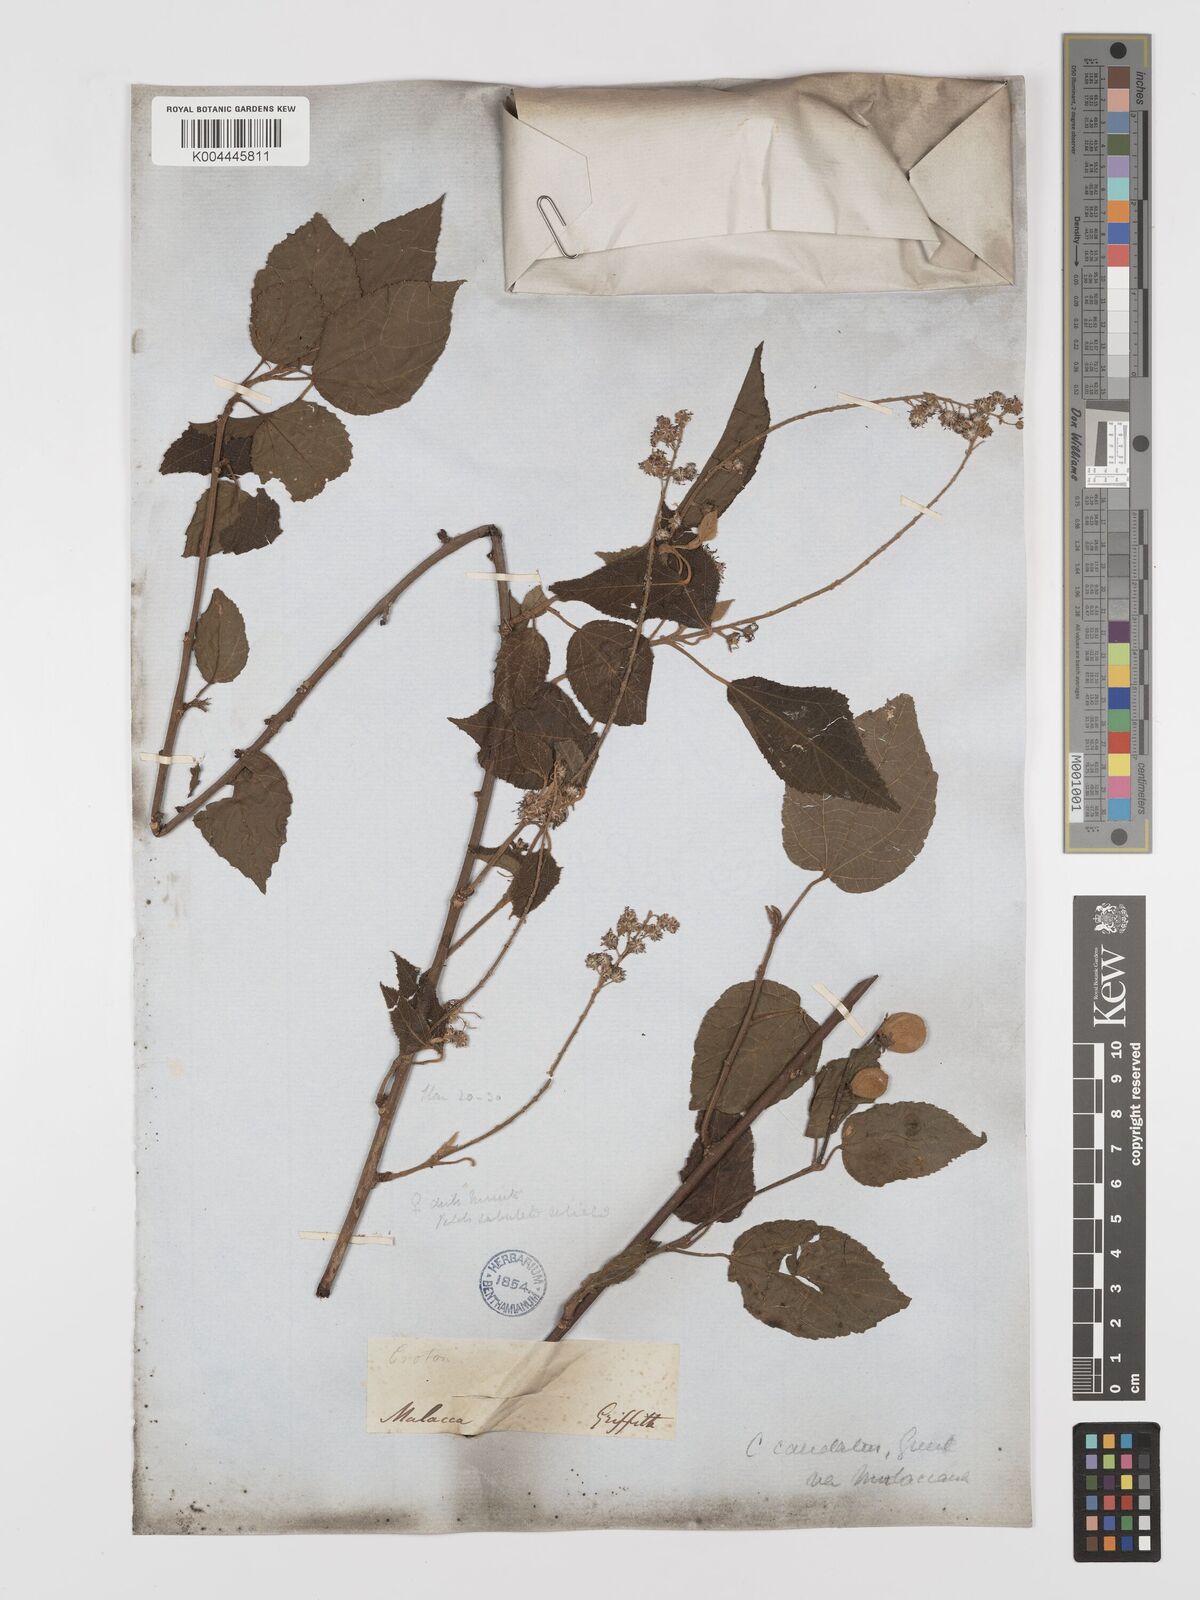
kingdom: Plantae
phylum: Tracheophyta
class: Magnoliopsida
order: Malpighiales
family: Euphorbiaceae
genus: Croton
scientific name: Croton caudatus
